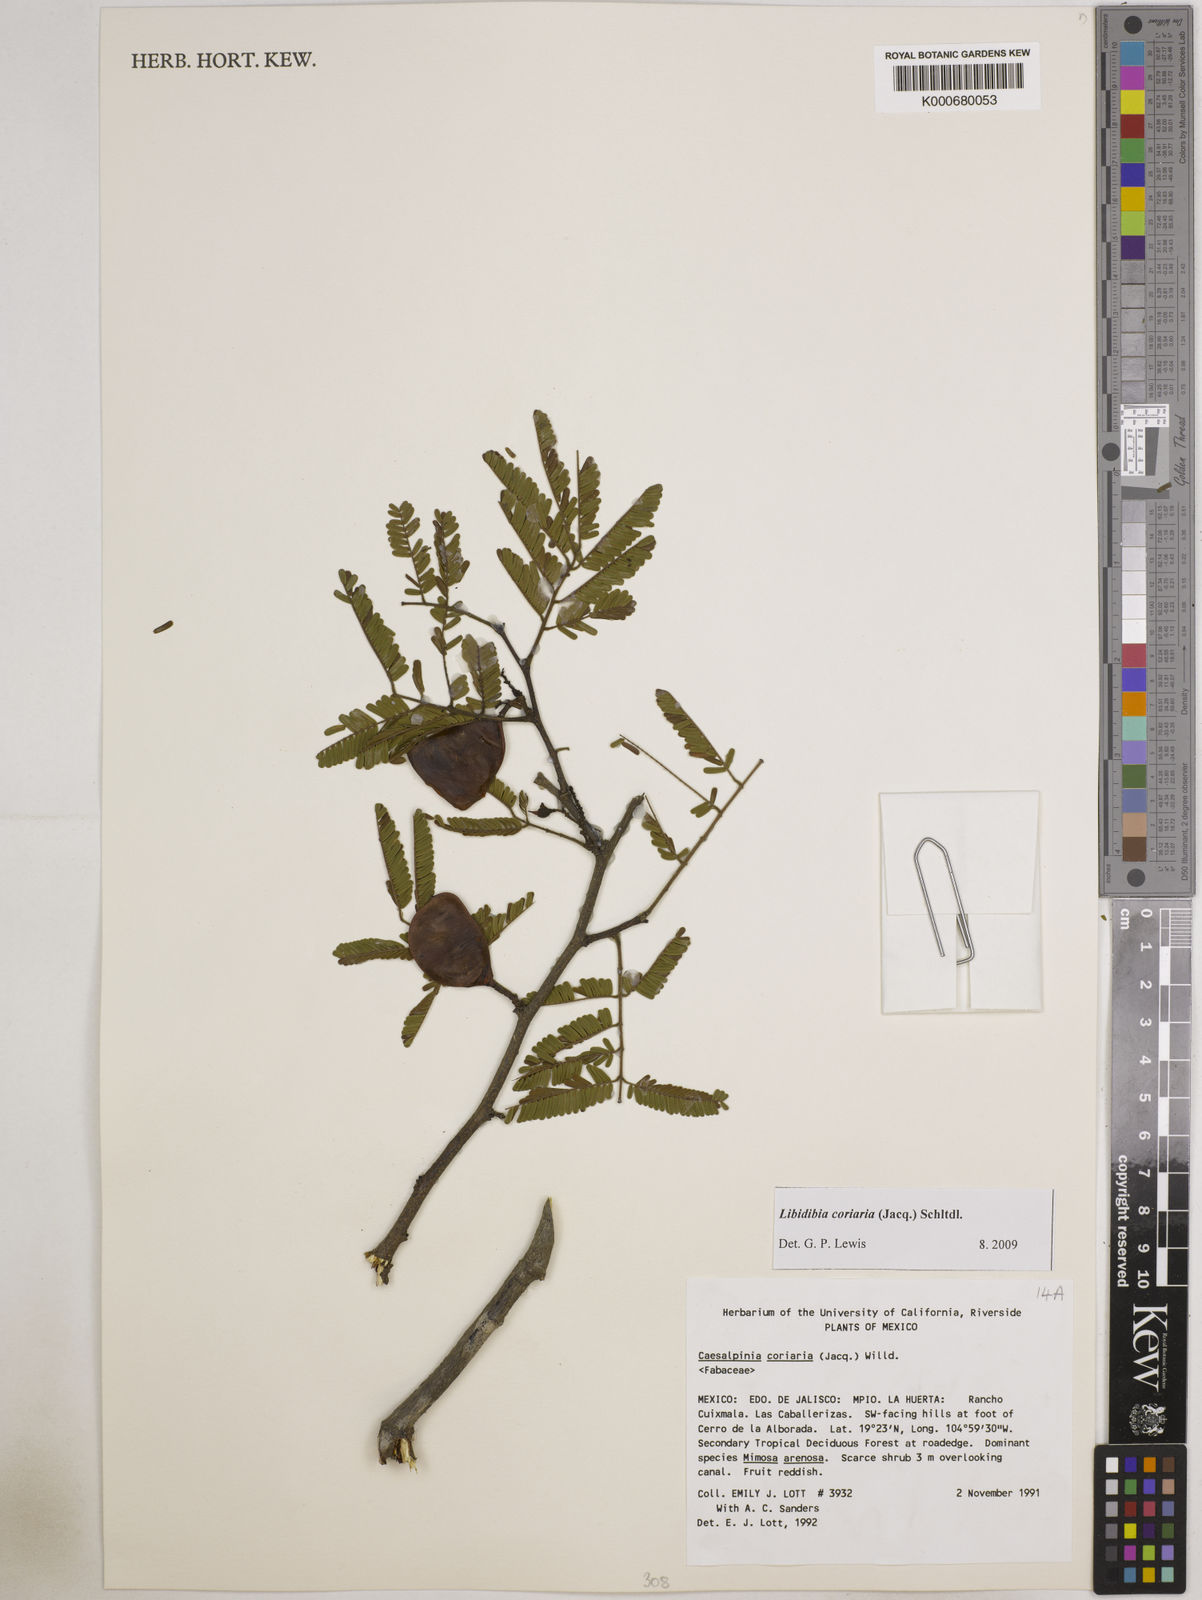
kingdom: Plantae
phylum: Tracheophyta
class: Magnoliopsida
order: Fabales
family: Fabaceae
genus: Libidibia
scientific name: Libidibia coriaria
